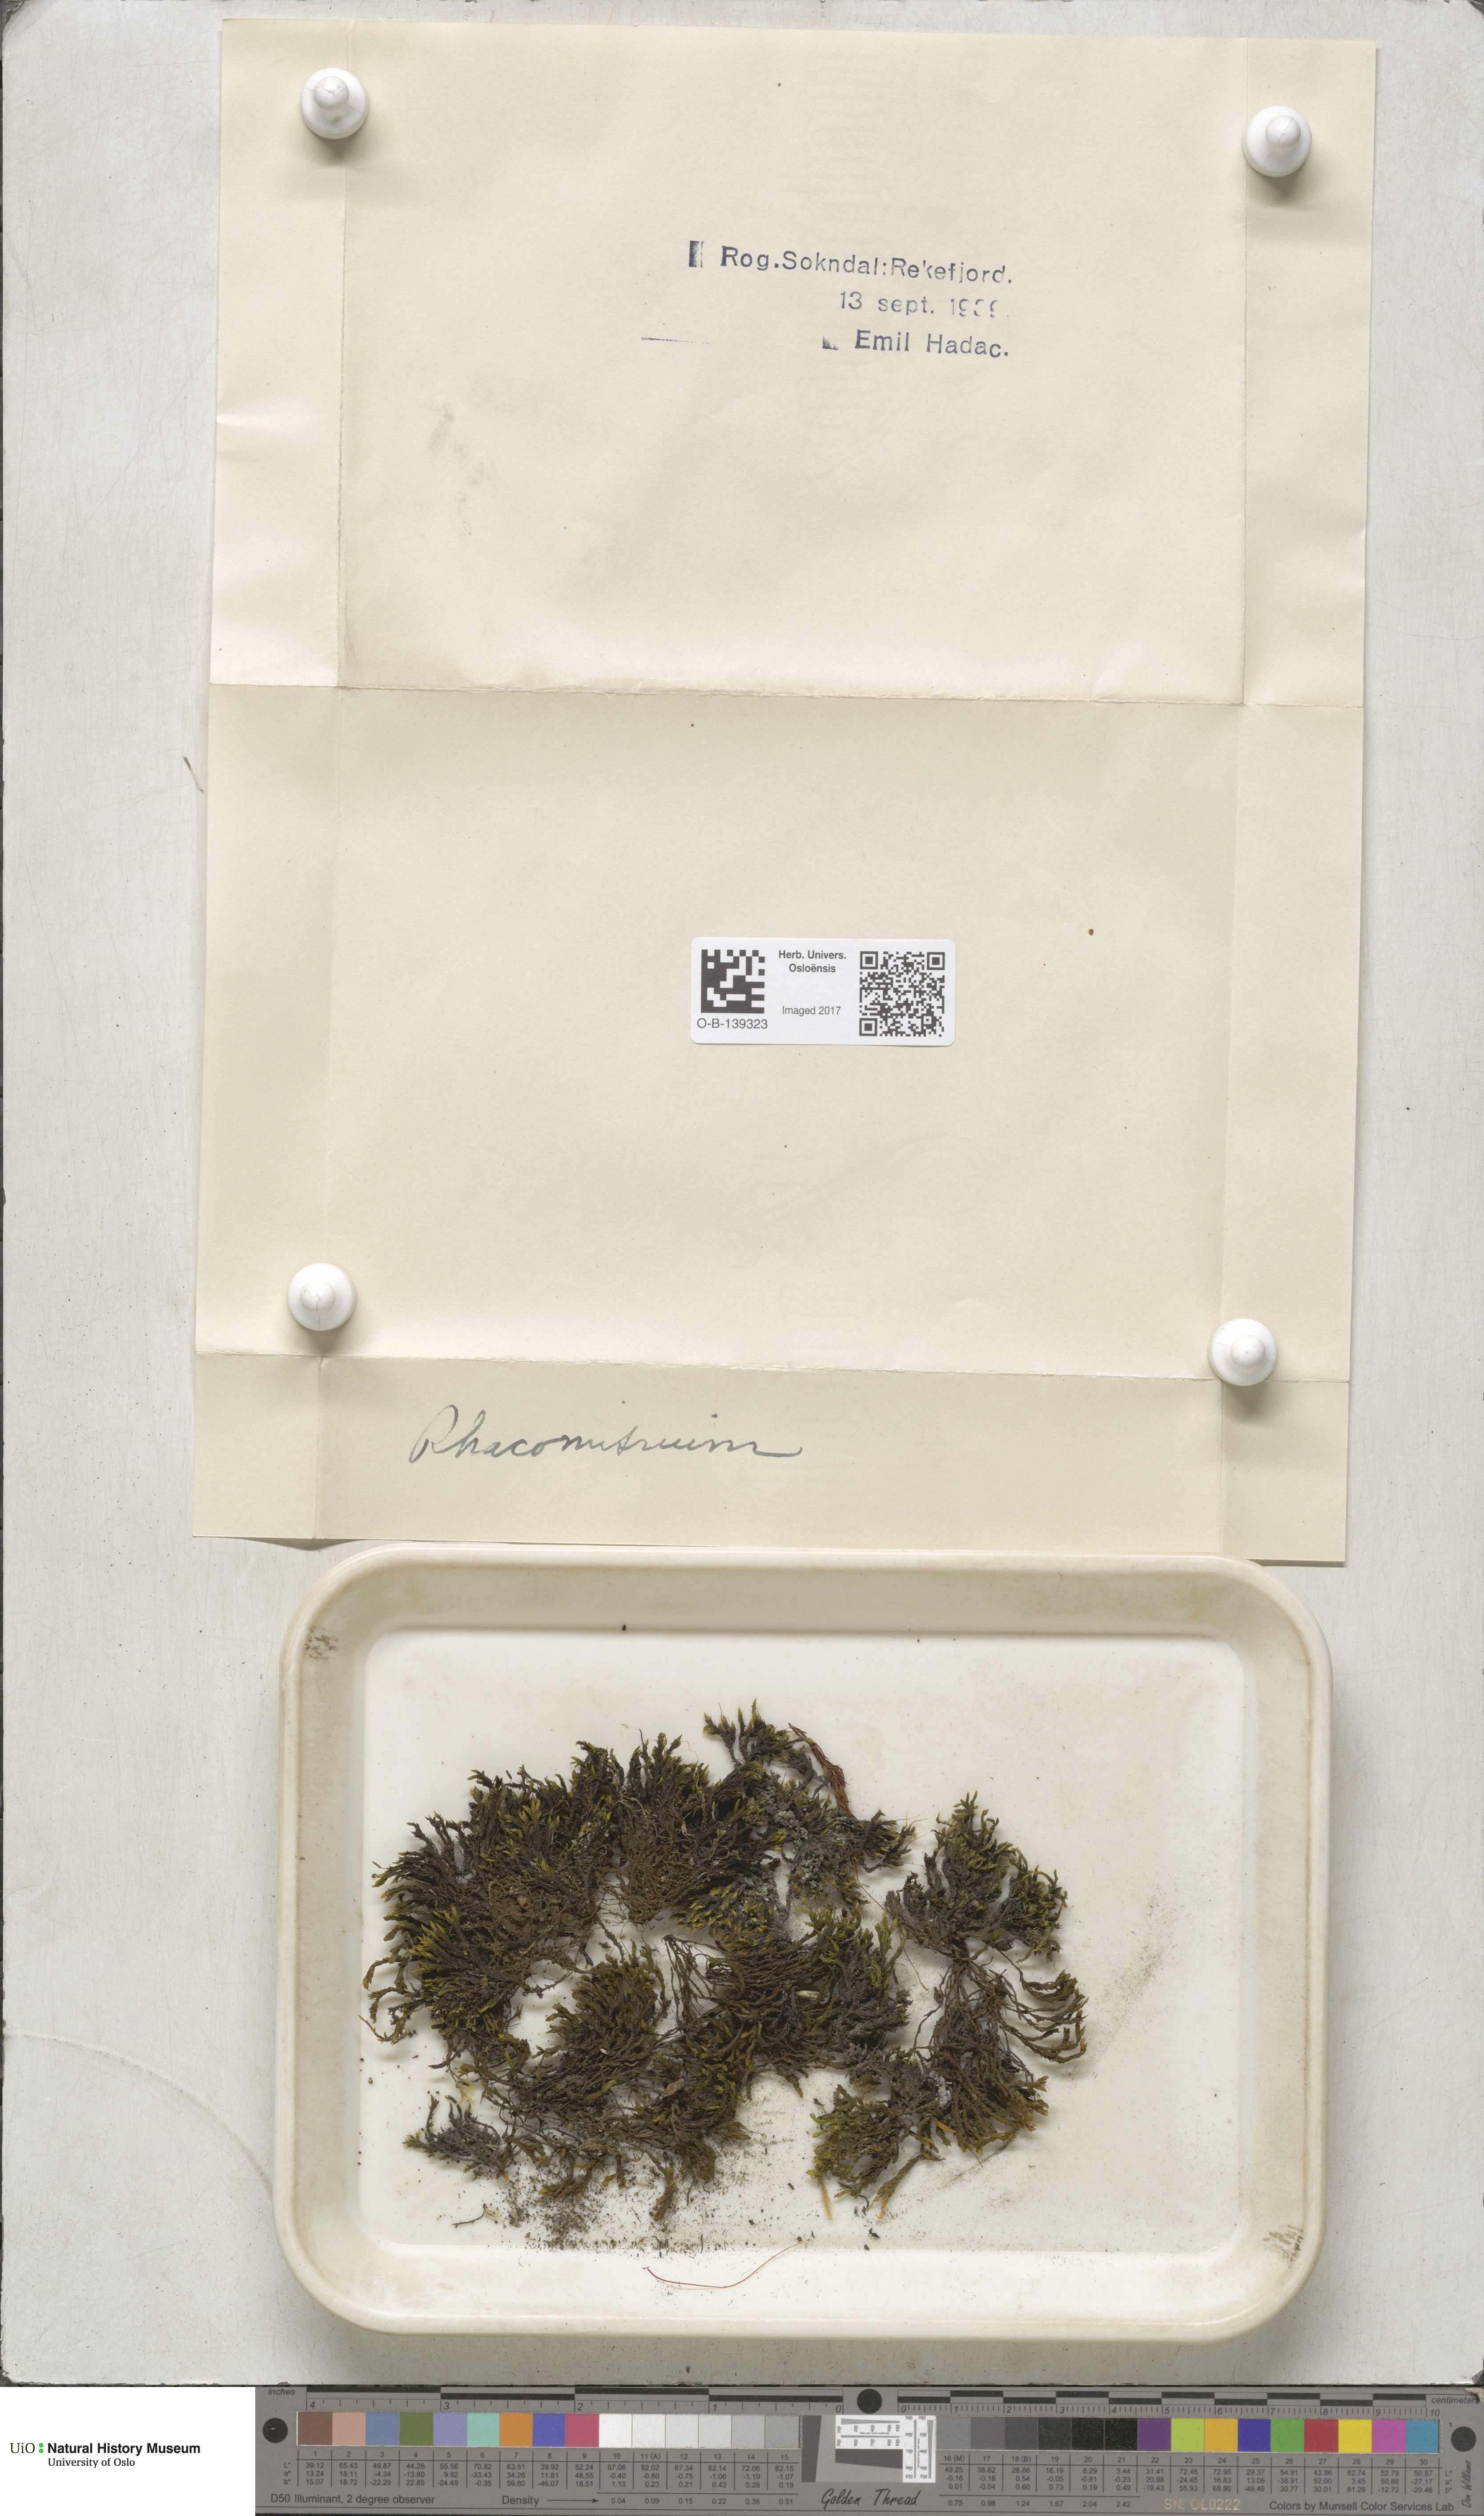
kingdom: Plantae
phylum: Bryophyta
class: Bryopsida
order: Grimmiales
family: Grimmiaceae
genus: Racomitrium
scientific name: Racomitrium
